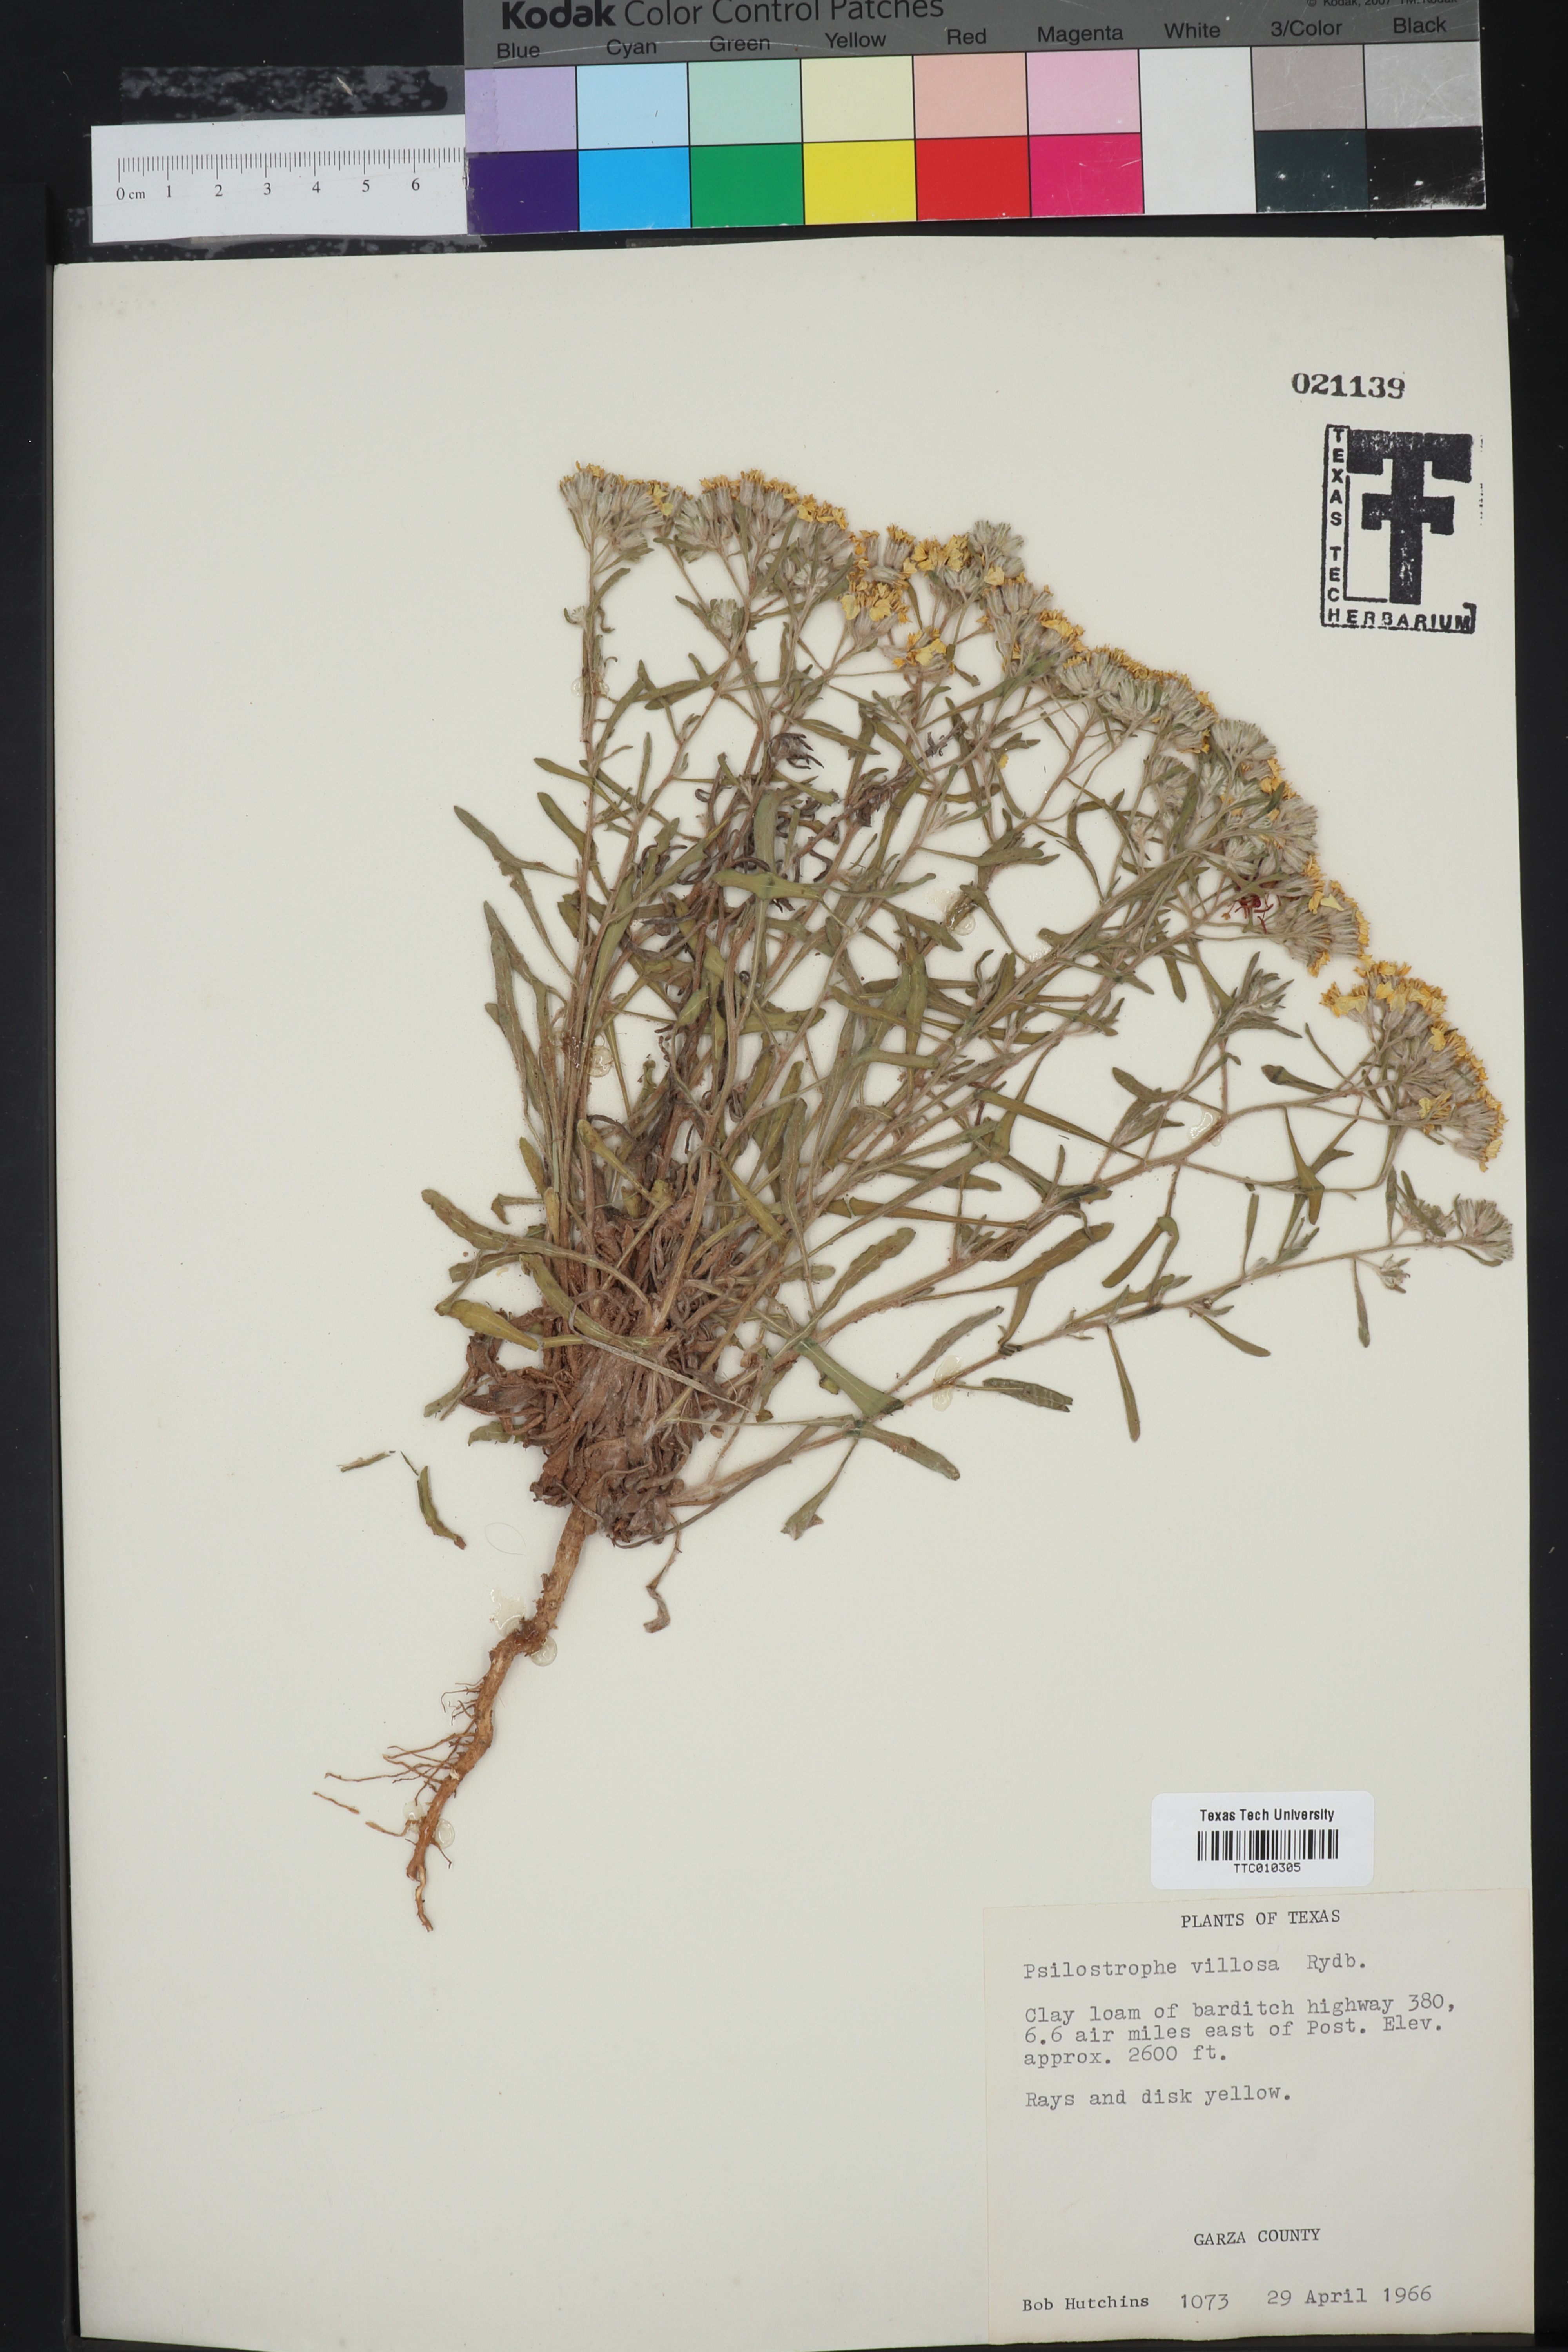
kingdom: Plantae
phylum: Tracheophyta
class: Magnoliopsida
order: Asterales
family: Asteraceae
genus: Psilostrophe
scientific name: Psilostrophe villosa
